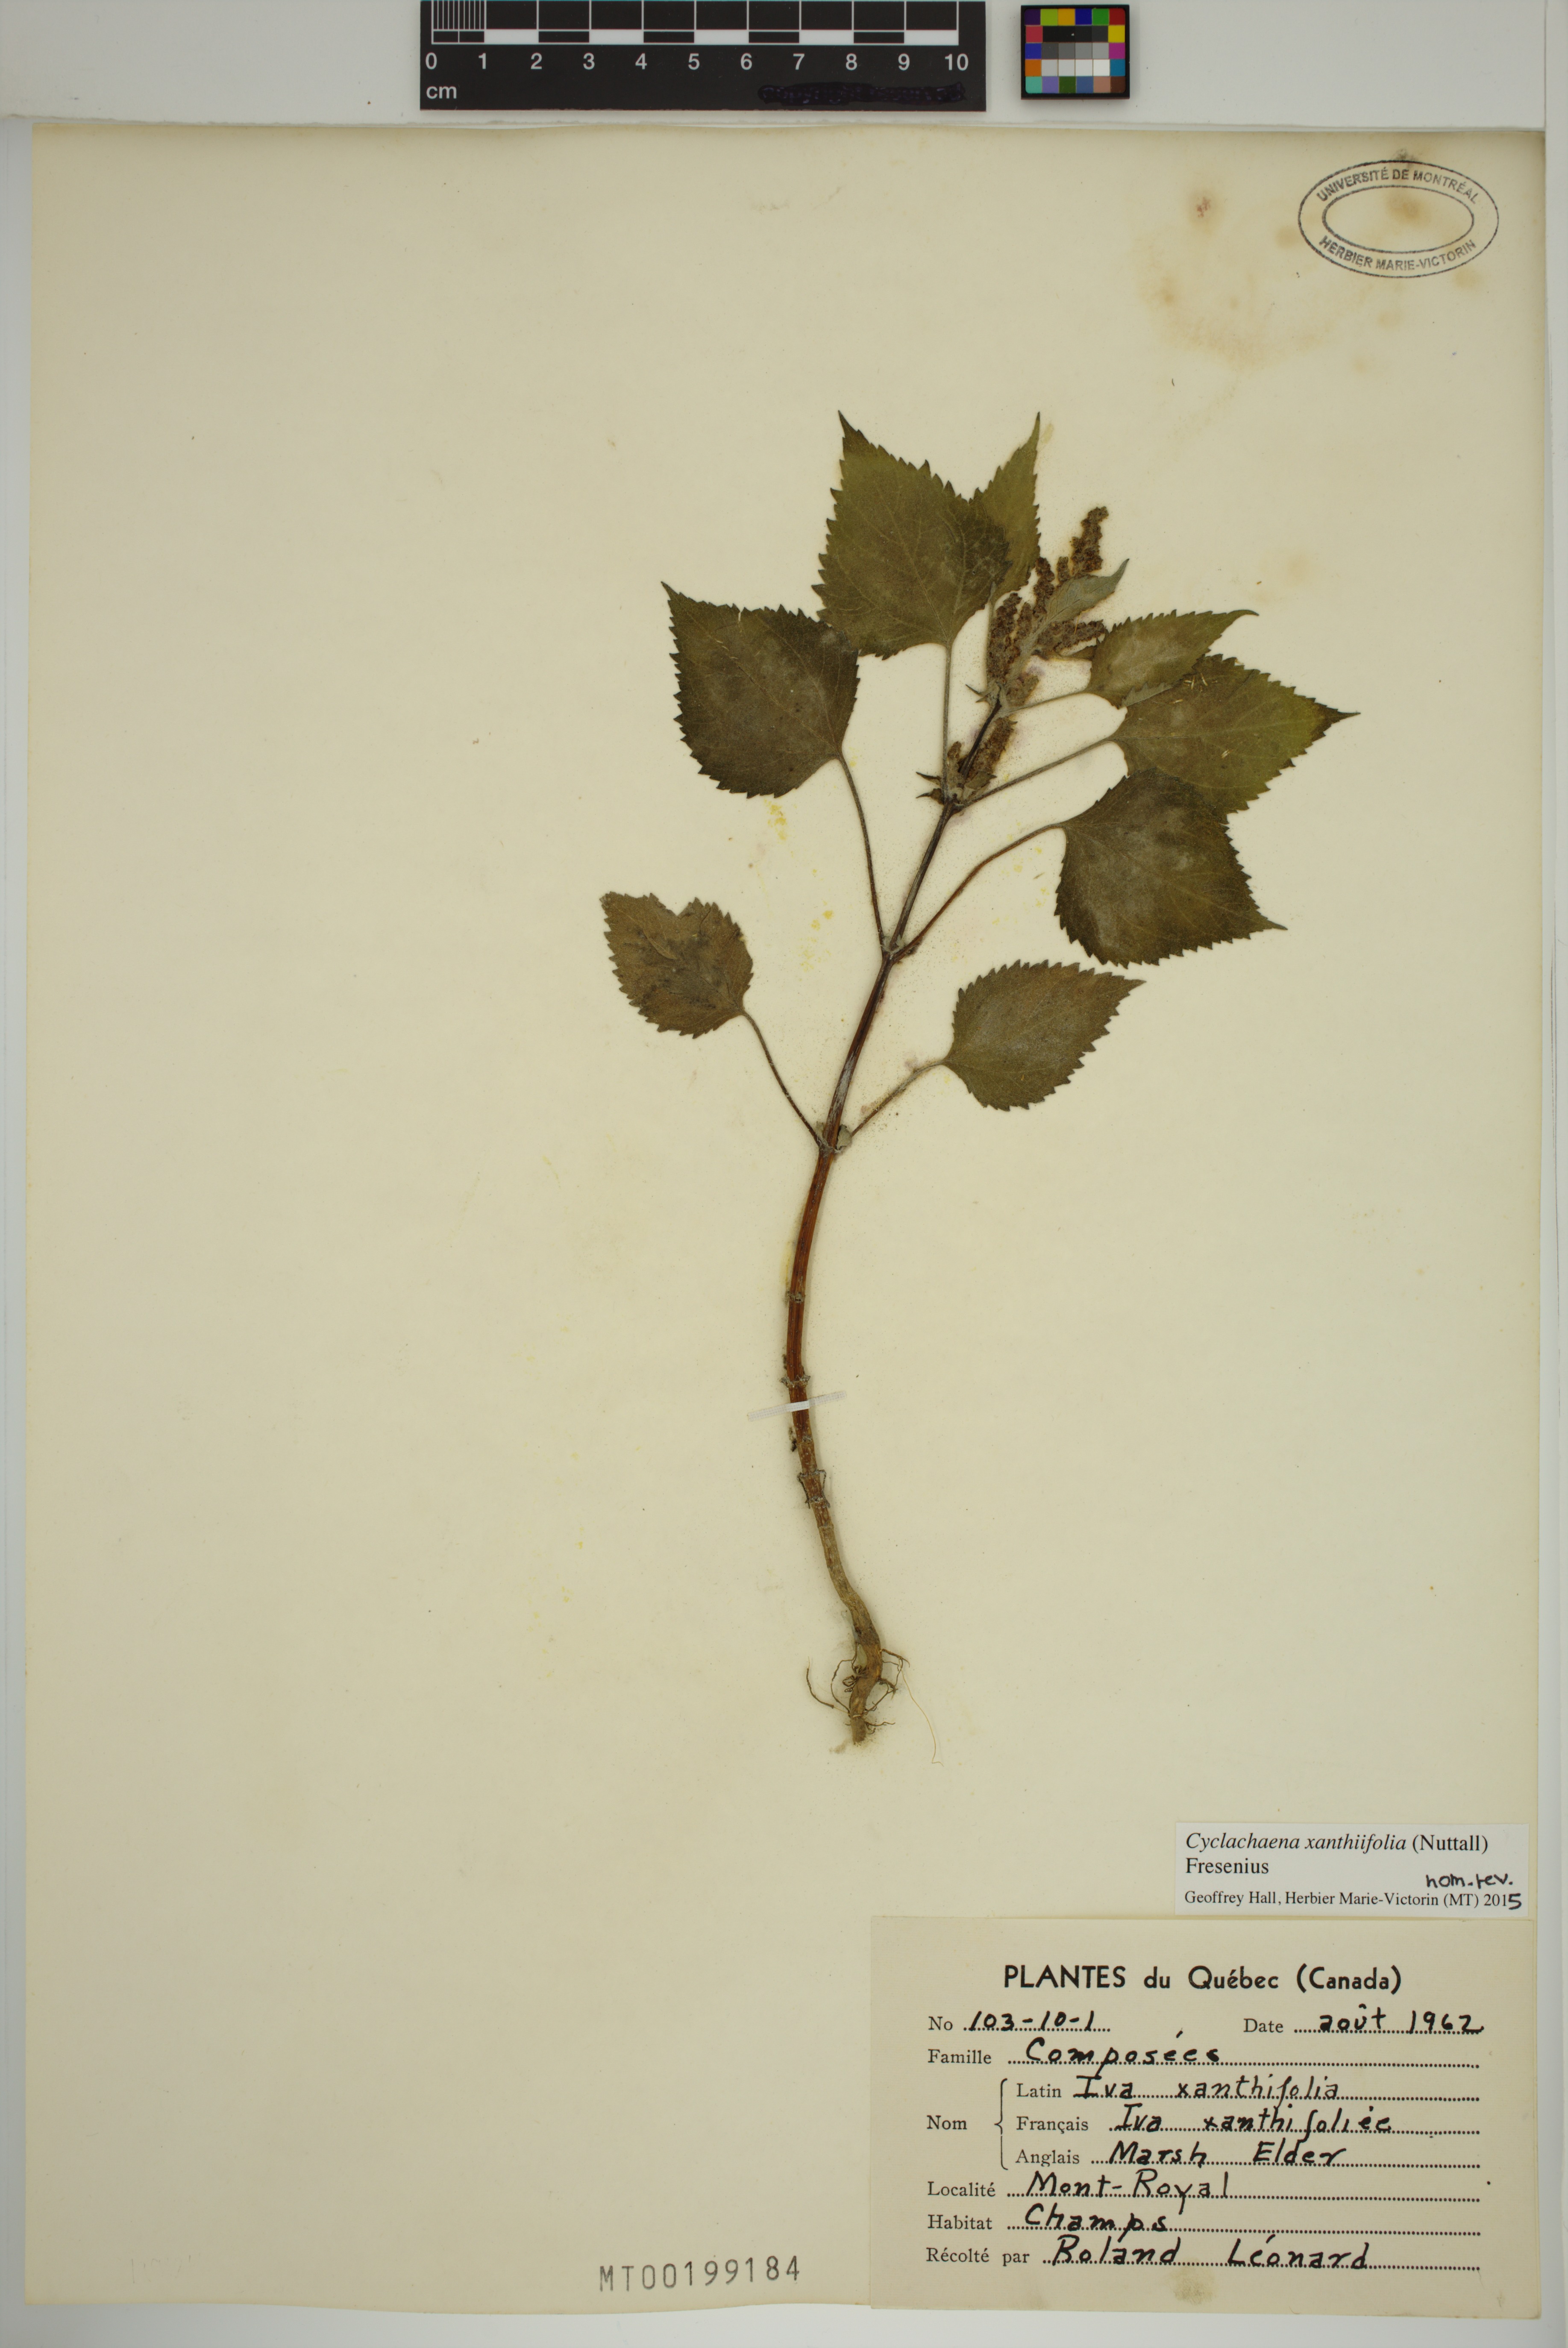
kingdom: Plantae
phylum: Tracheophyta
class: Magnoliopsida
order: Asterales
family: Asteraceae
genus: Cyclachaena
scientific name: Cyclachaena xanthiifolia
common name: Giant sumpweed
